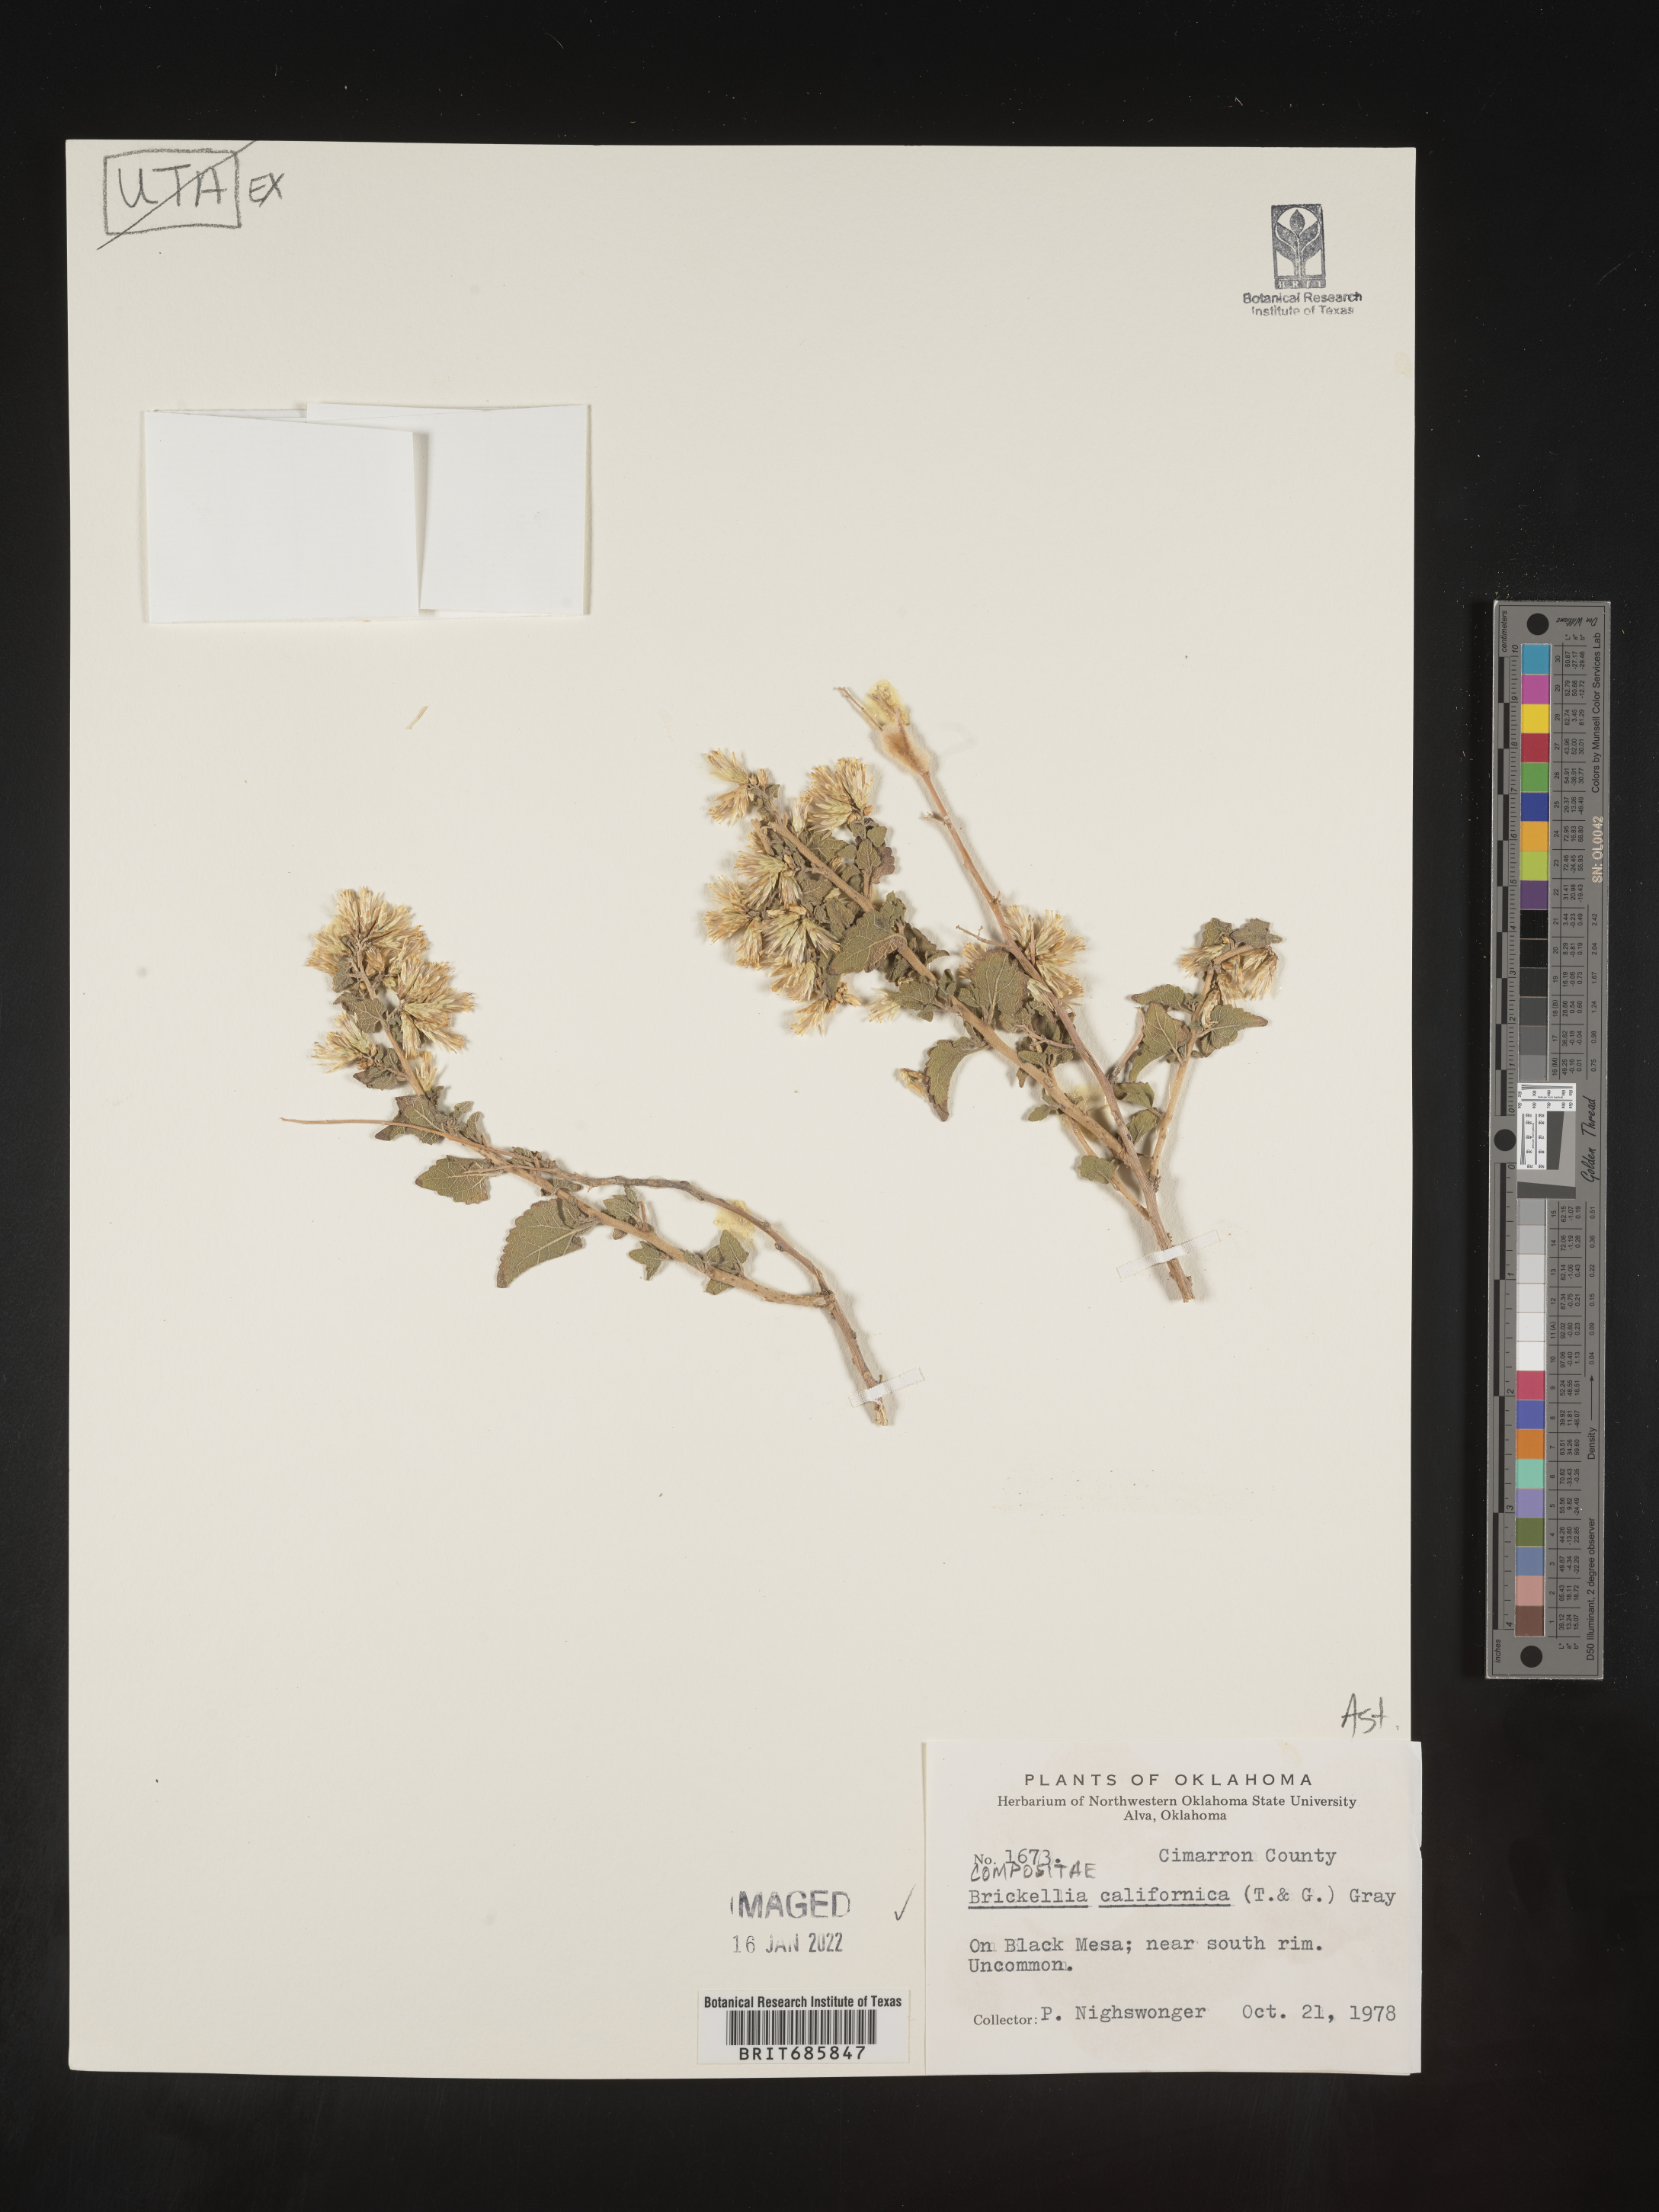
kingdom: Plantae
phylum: Tracheophyta
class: Magnoliopsida
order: Asterales
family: Asteraceae
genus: Brickellia
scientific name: Brickellia californica
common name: California brickellbush
